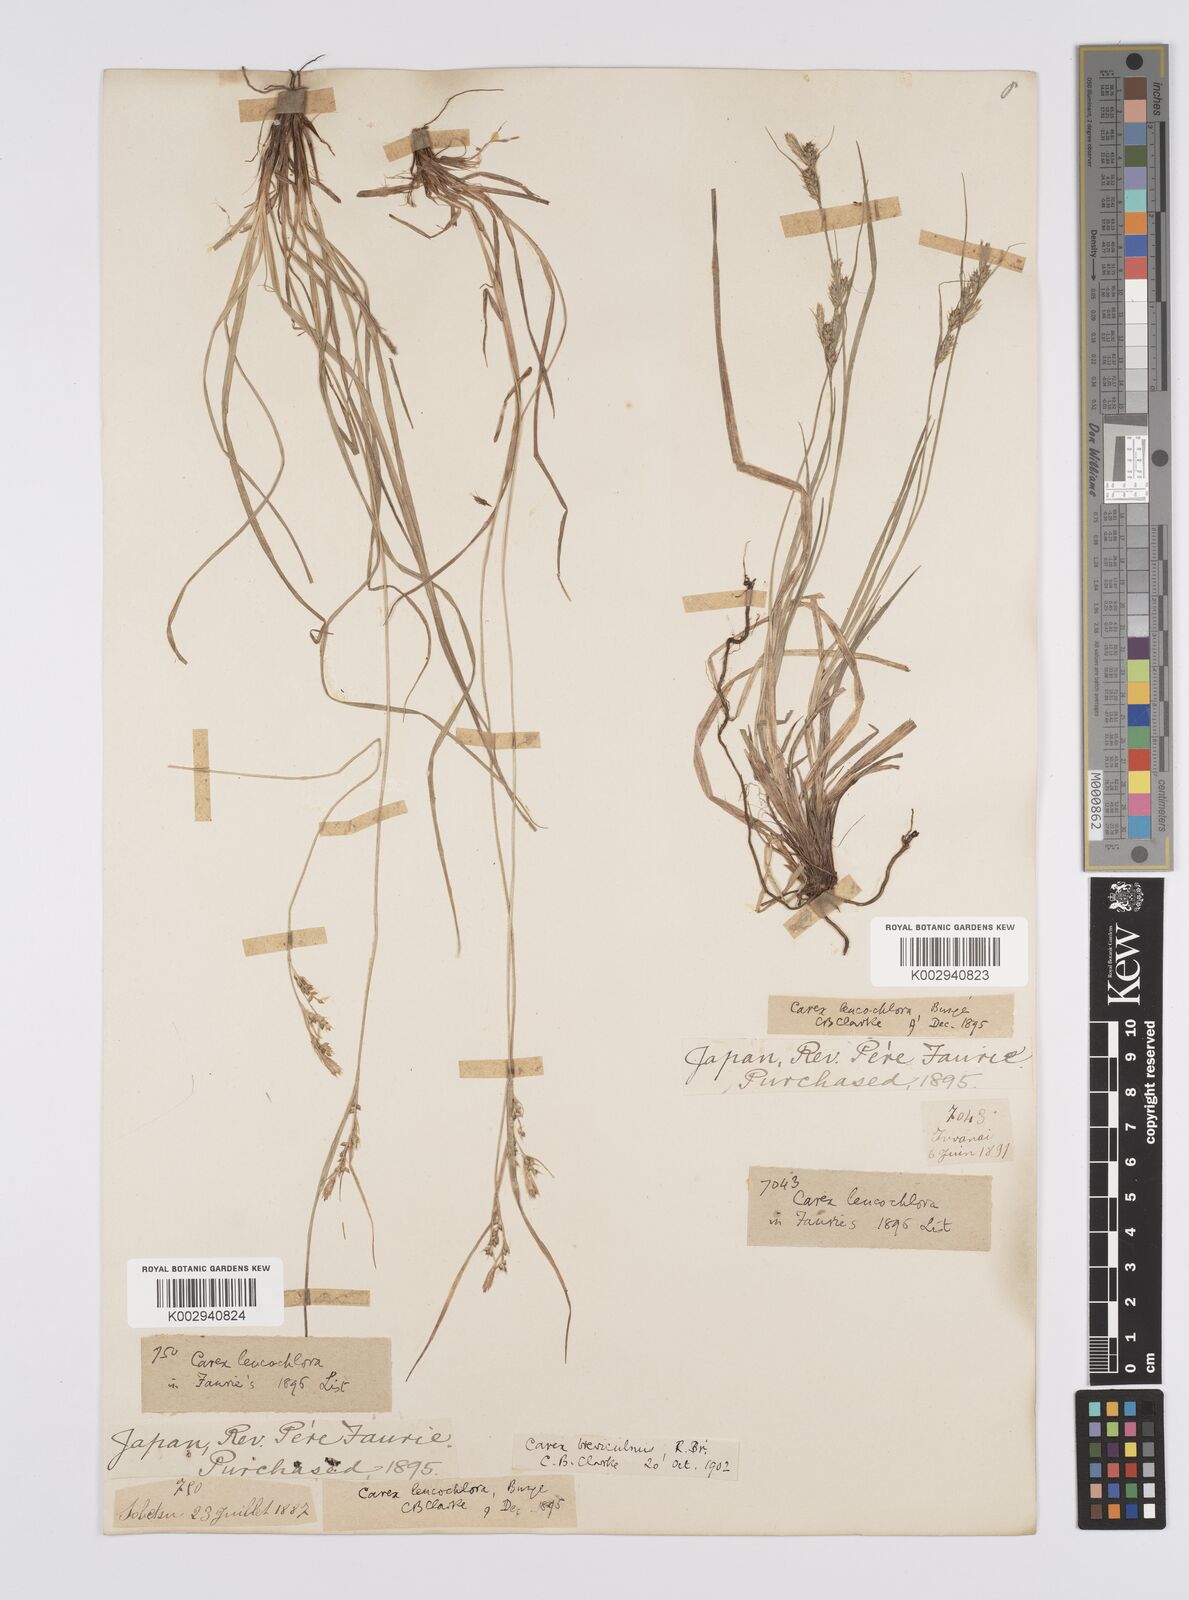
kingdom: Plantae
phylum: Tracheophyta
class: Liliopsida
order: Poales
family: Cyperaceae
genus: Carex
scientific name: Carex breviculmis
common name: Asian shortstem sedge
